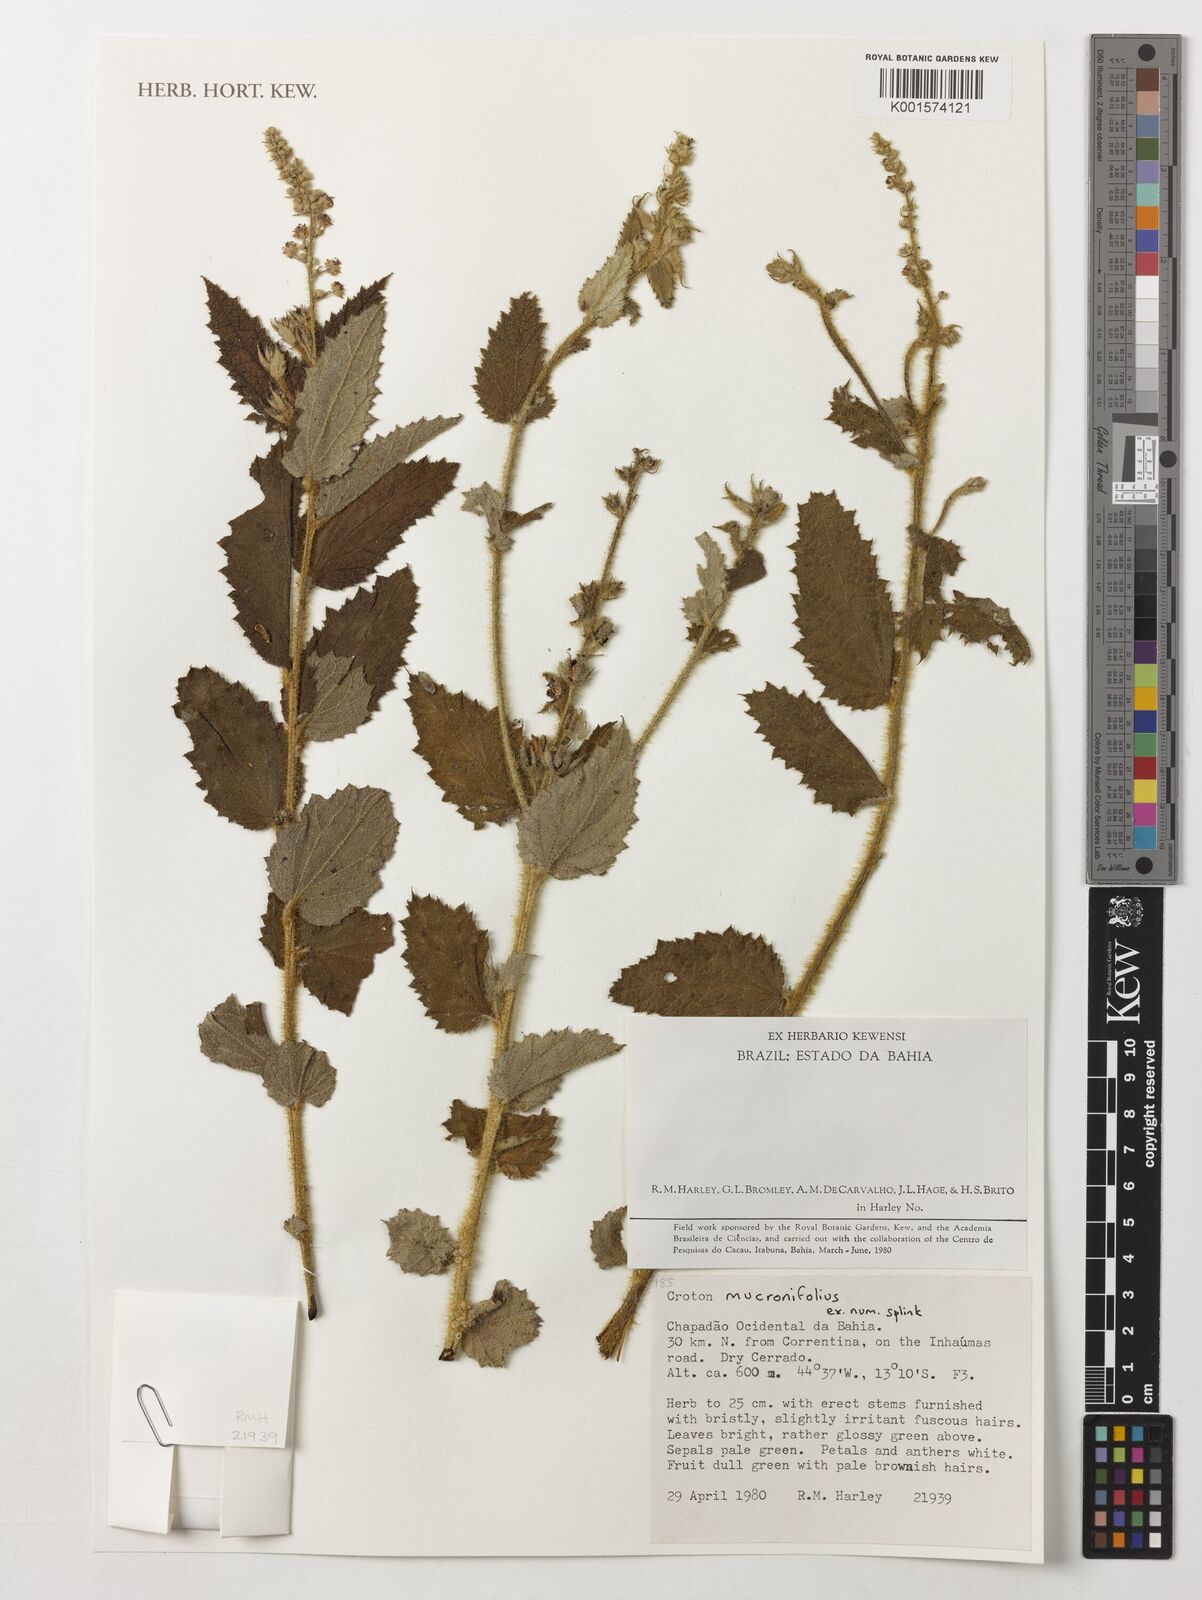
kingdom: Plantae
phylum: Tracheophyta
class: Magnoliopsida
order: Malpighiales
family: Euphorbiaceae
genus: Croton
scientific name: Croton mucronifolius
